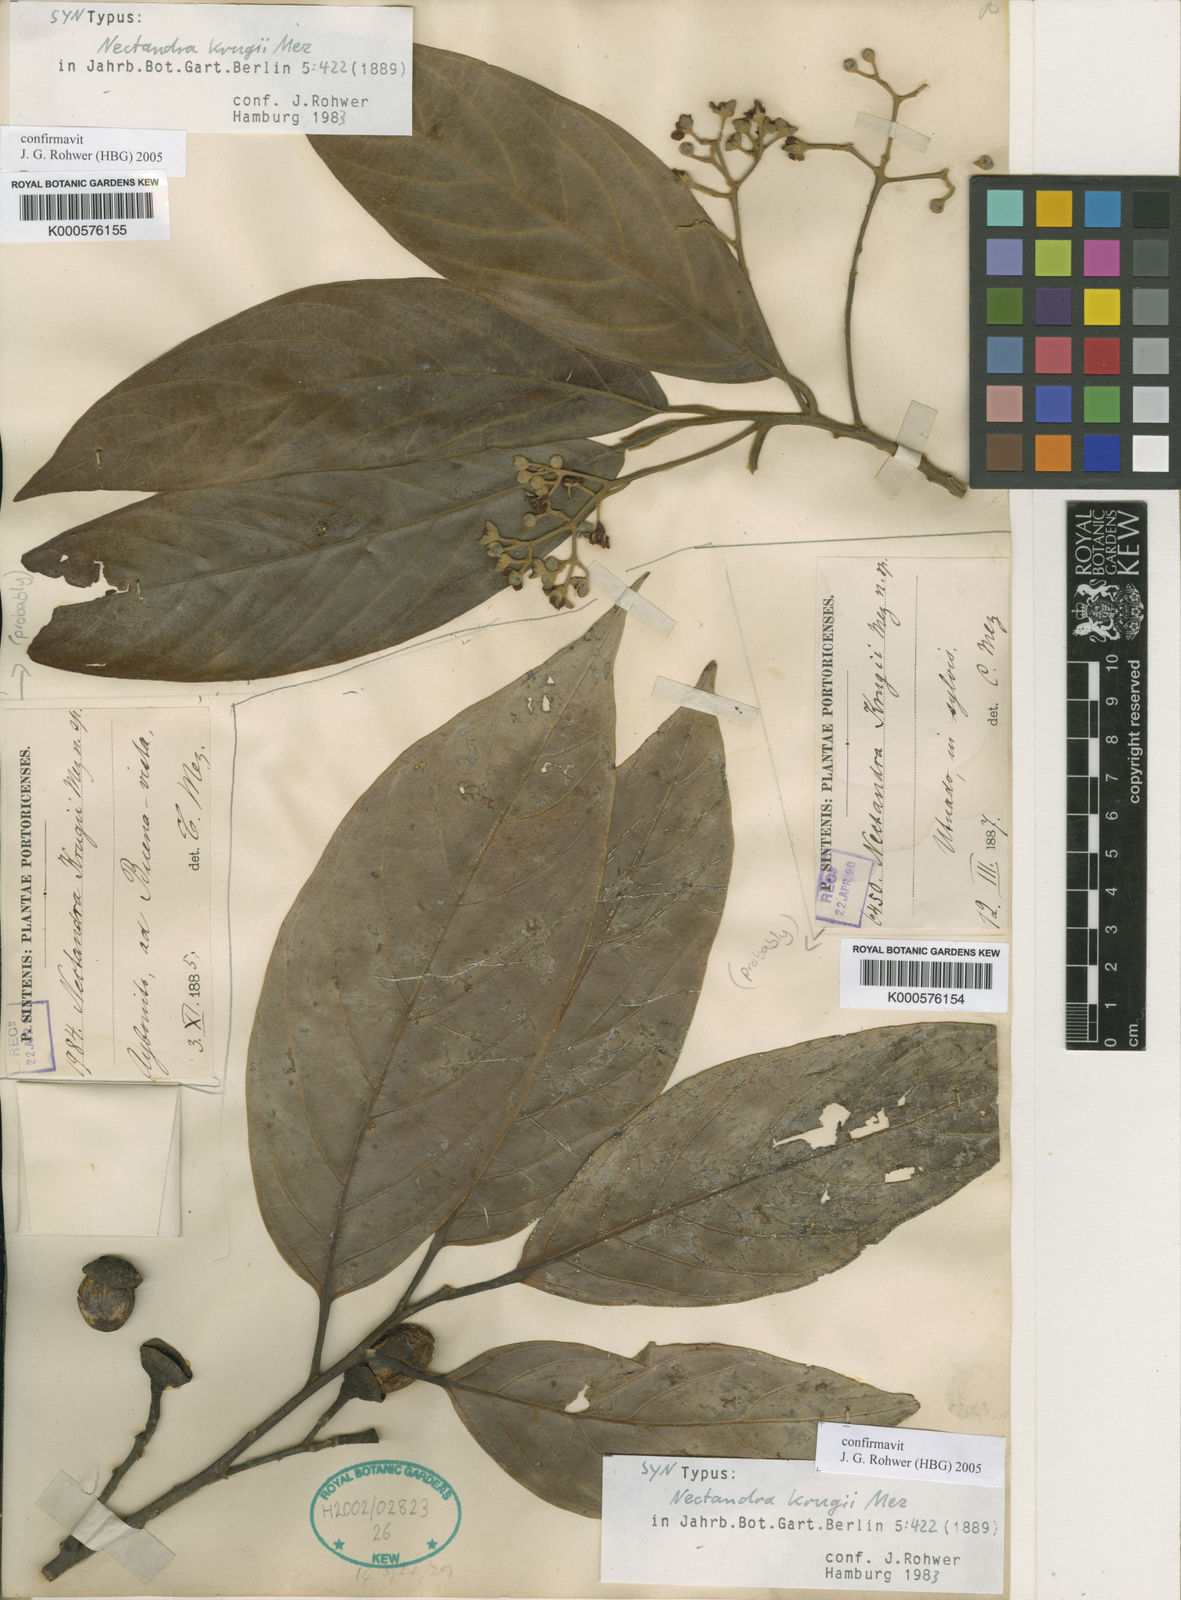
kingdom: Plantae
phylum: Tracheophyta
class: Magnoliopsida
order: Laurales
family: Lauraceae
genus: Nectandra
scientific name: Nectandra krugii
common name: Black sweetwood
